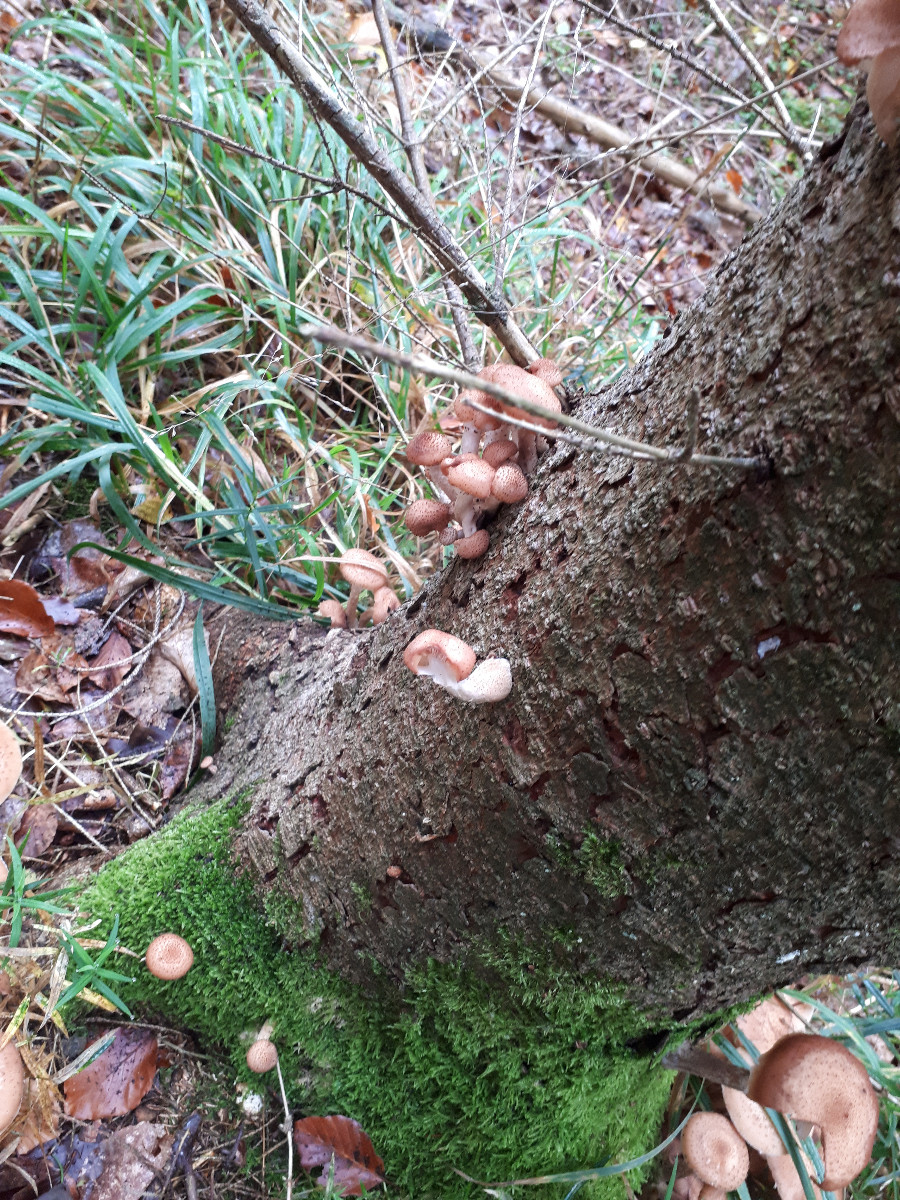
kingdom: Fungi
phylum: Basidiomycota
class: Agaricomycetes
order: Agaricales
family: Physalacriaceae
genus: Armillaria
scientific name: Armillaria ostoyae
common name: mørk honningsvamp
